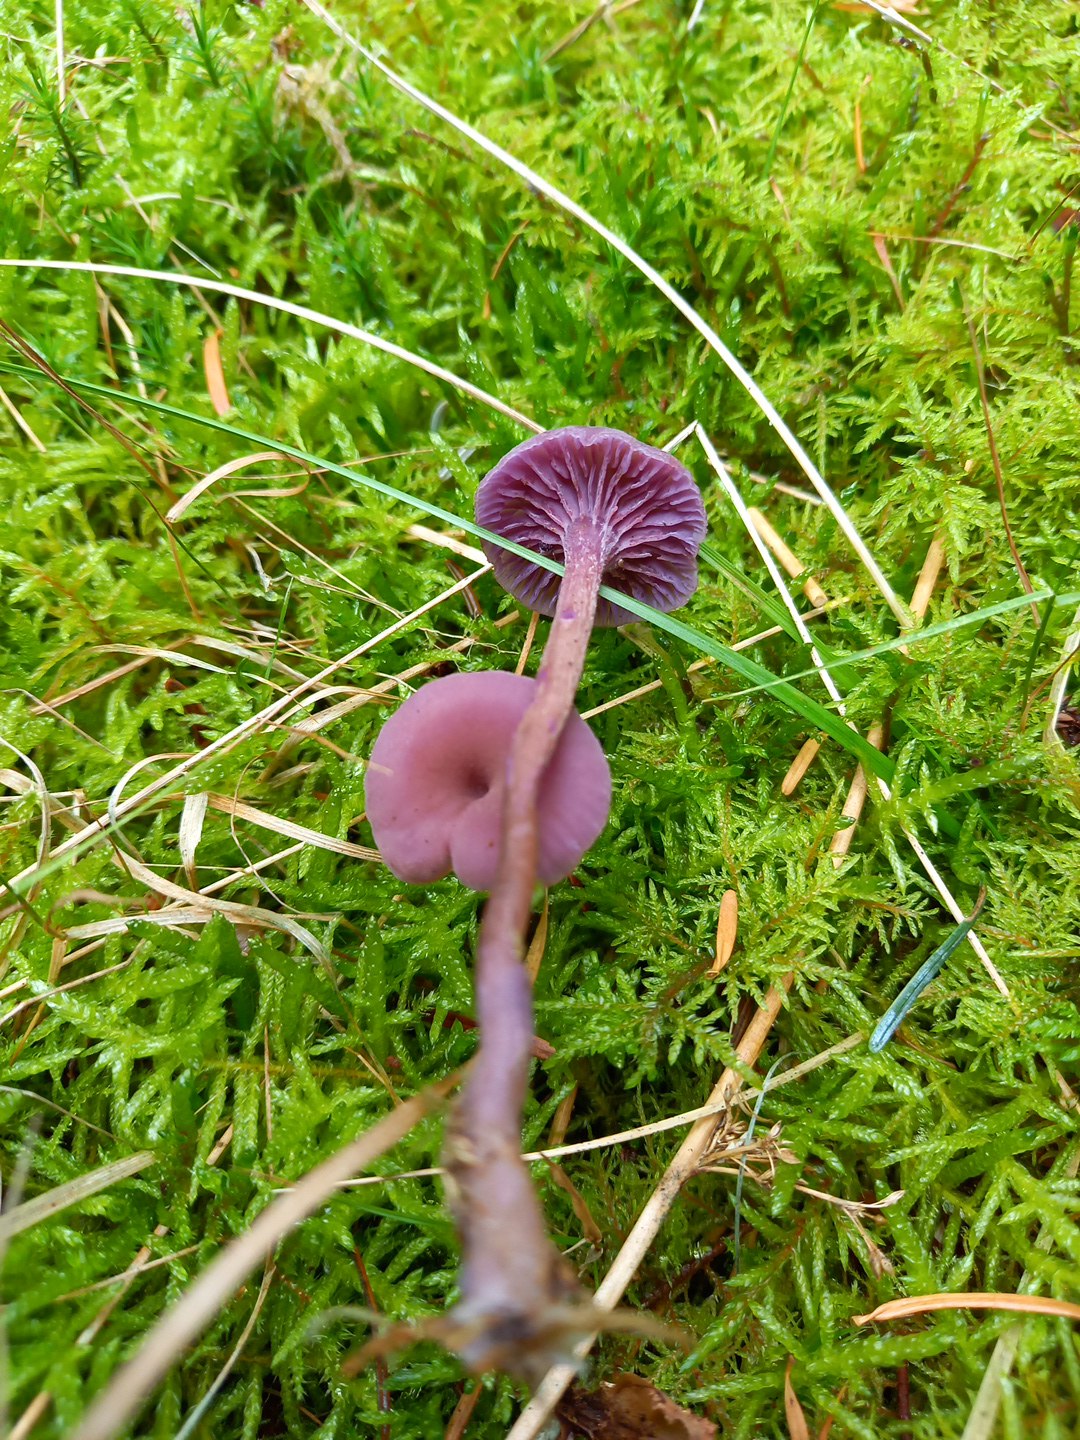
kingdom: Fungi
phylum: Basidiomycota
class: Agaricomycetes
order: Agaricales
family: Hydnangiaceae
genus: Laccaria
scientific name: Laccaria amethystina
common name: violet ametysthat
